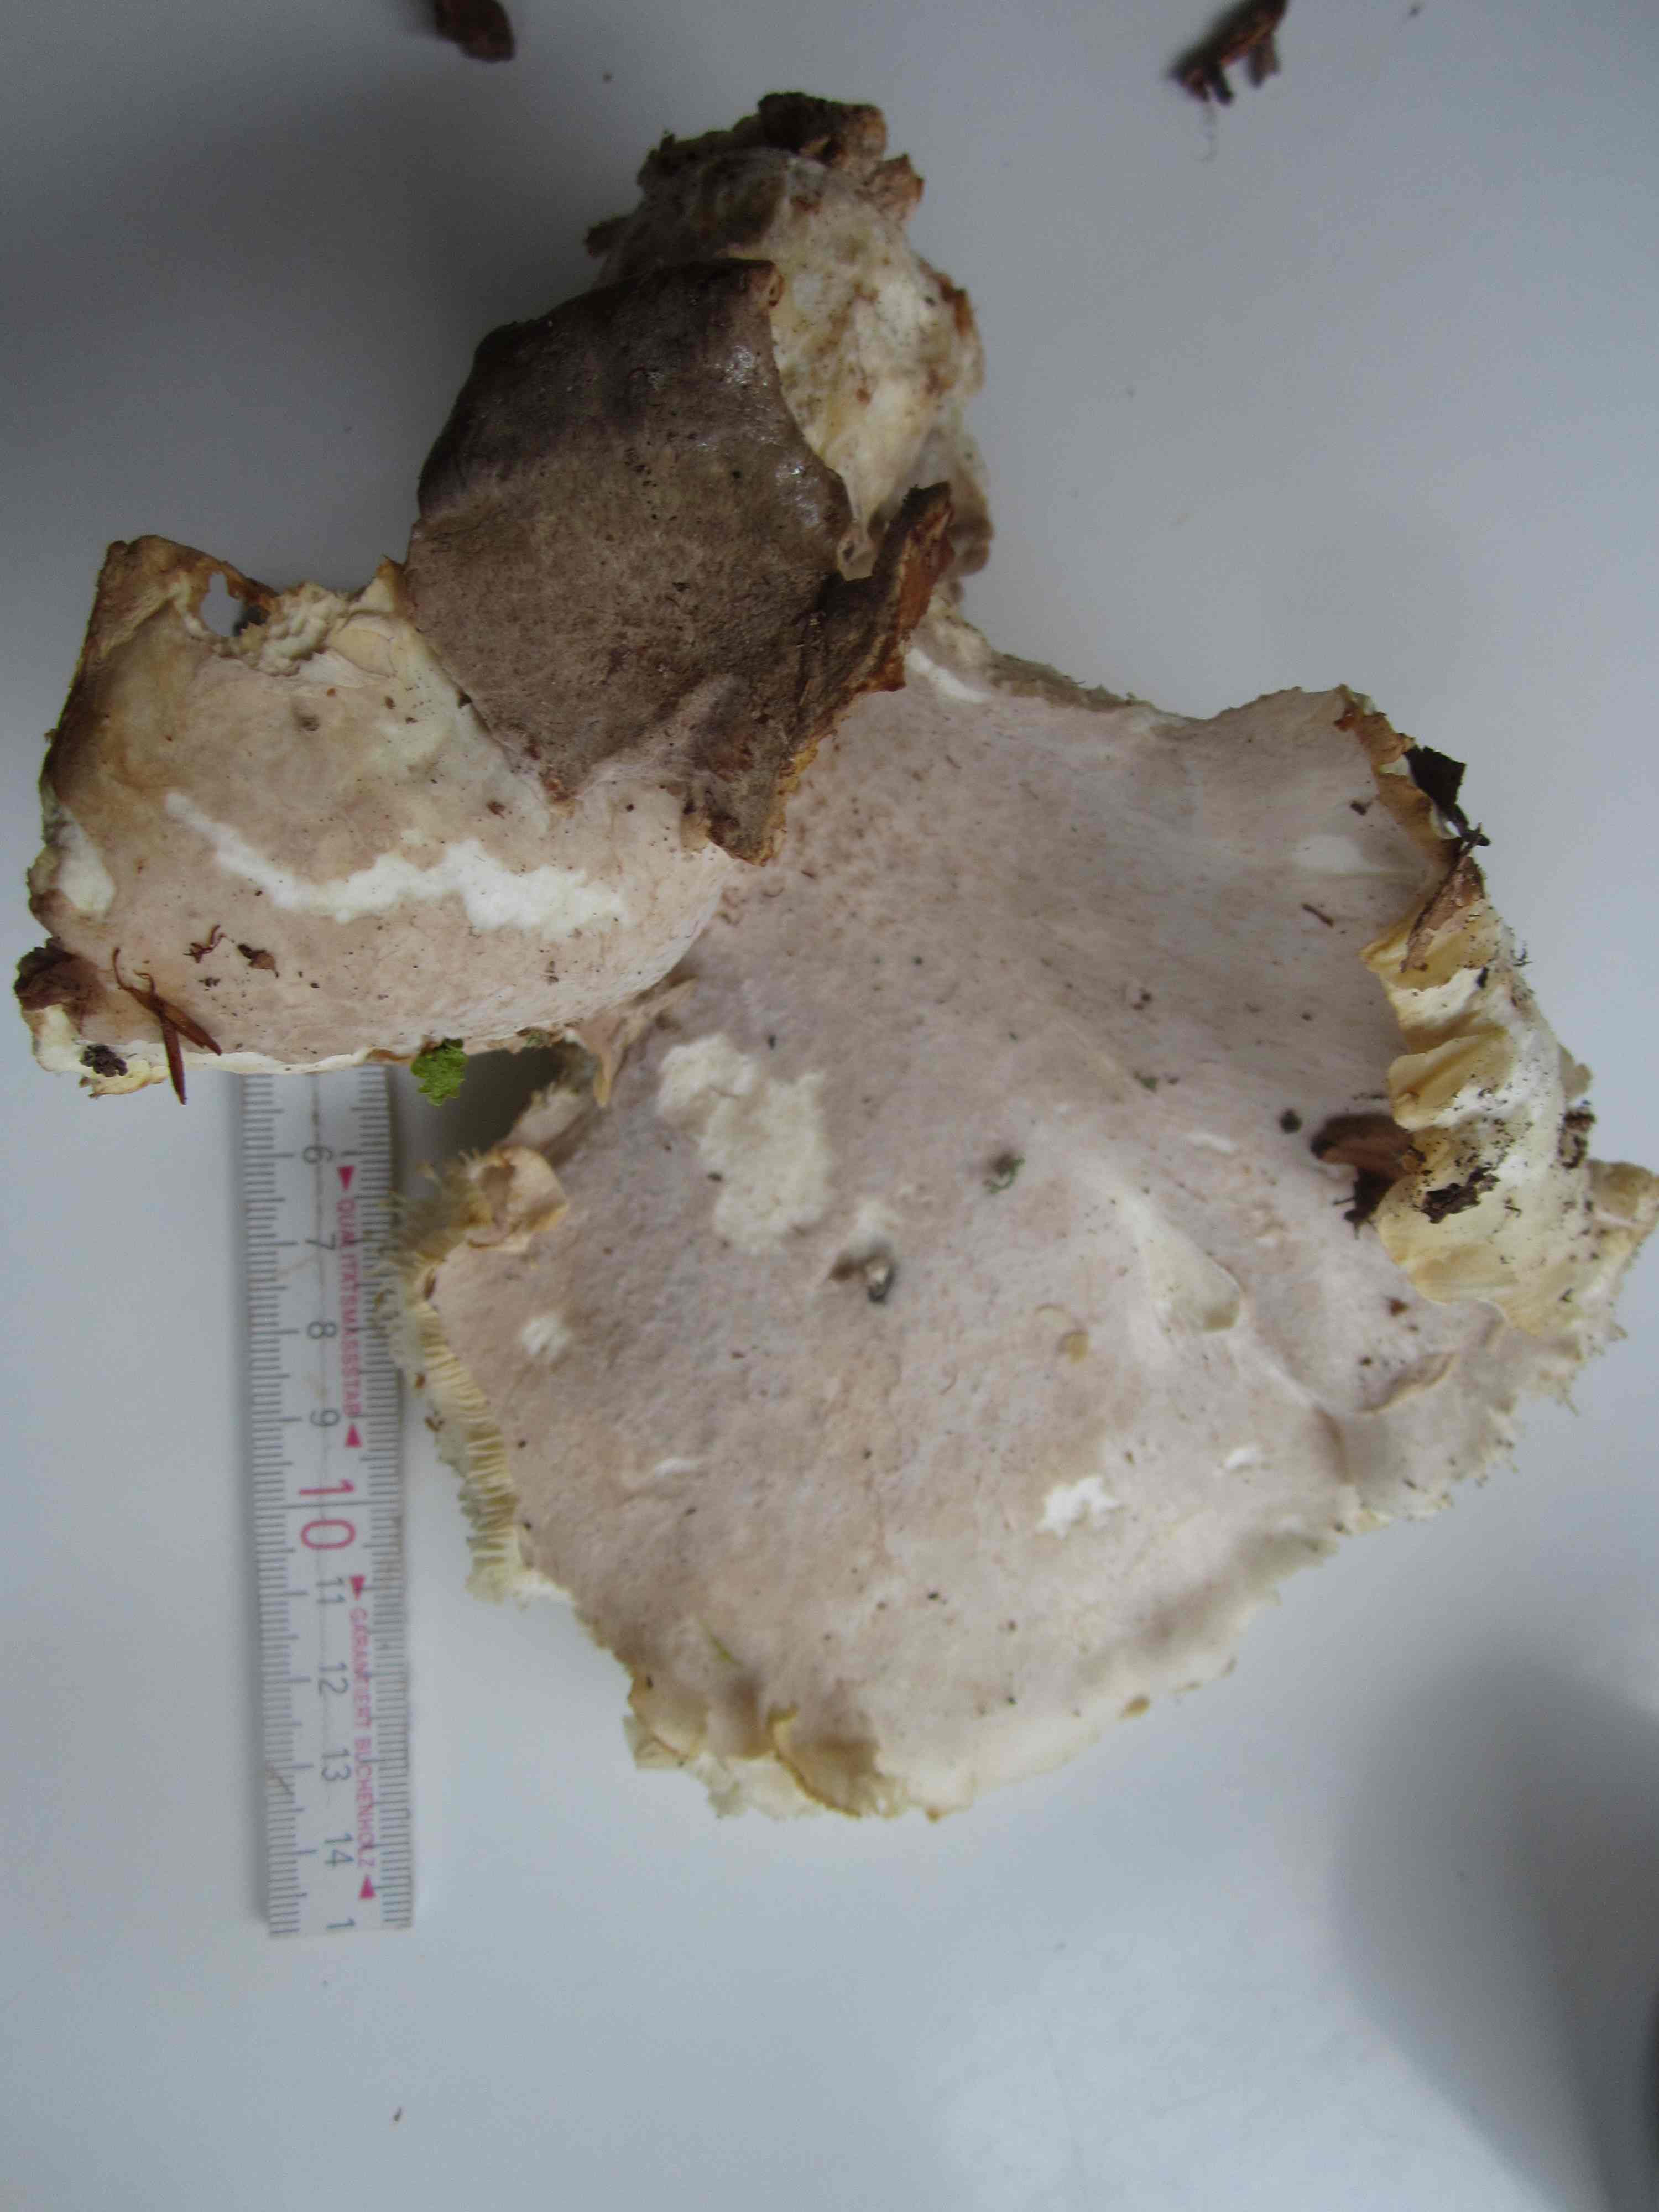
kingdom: Fungi
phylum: Basidiomycota
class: Agaricomycetes
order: Agaricales
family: Pleurotaceae
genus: Pleurotus
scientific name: Pleurotus dryinus
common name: korkagtig østershat
